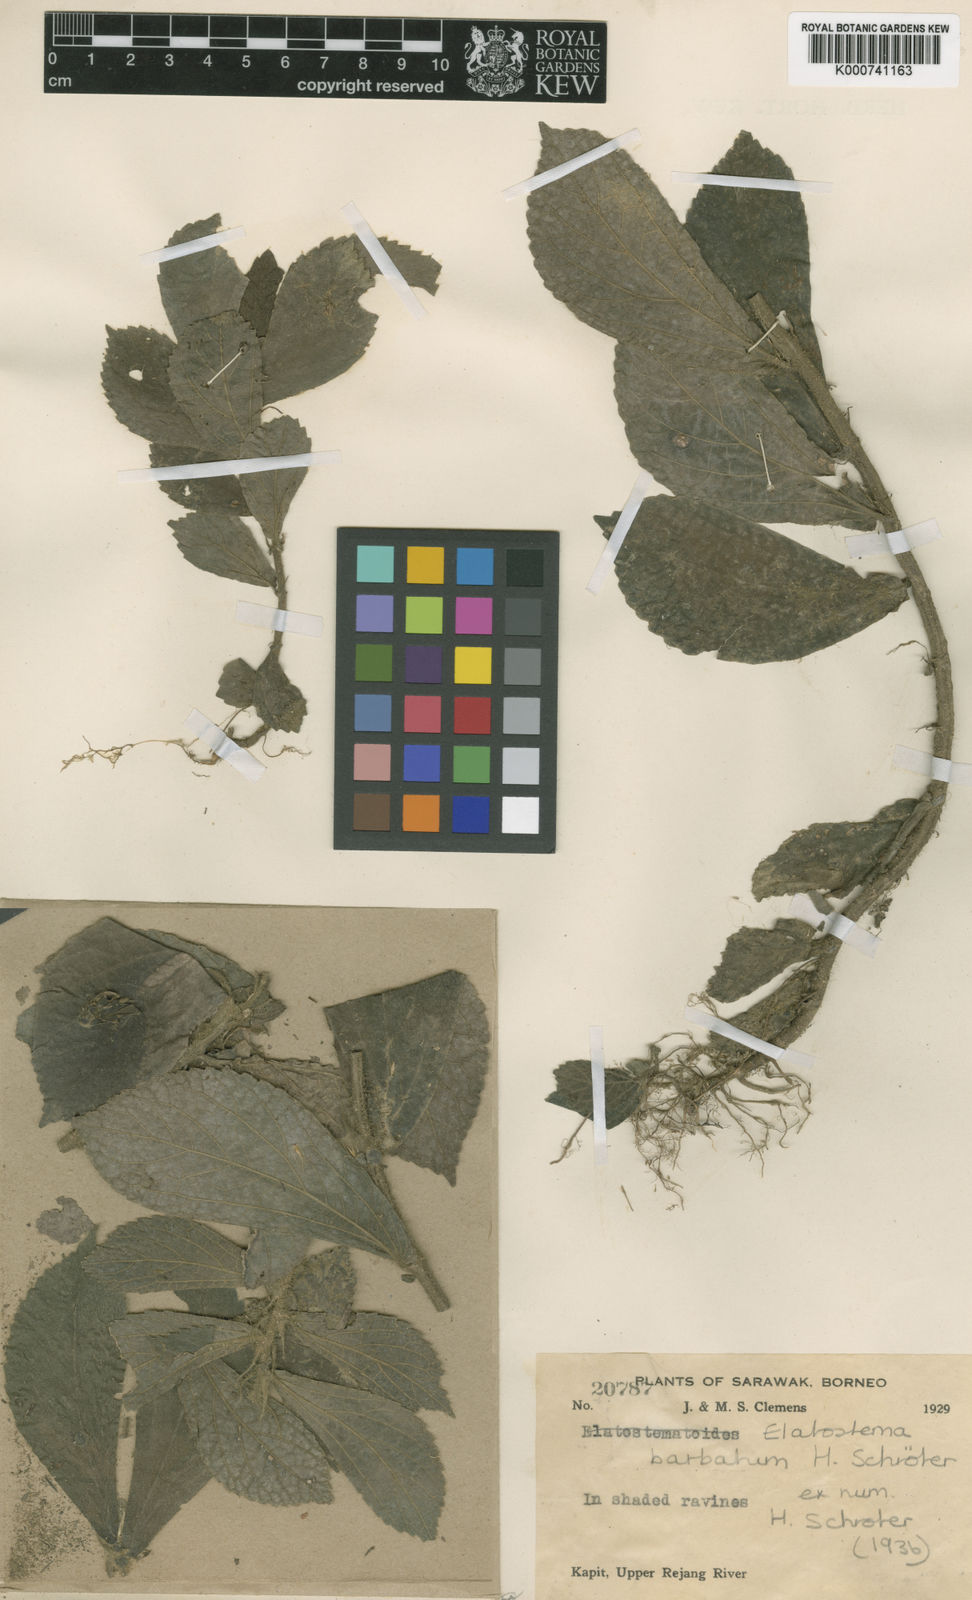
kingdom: Plantae
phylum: Tracheophyta
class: Magnoliopsida
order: Rosales
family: Urticaceae
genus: Elatostema
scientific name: Elatostema barbatum
